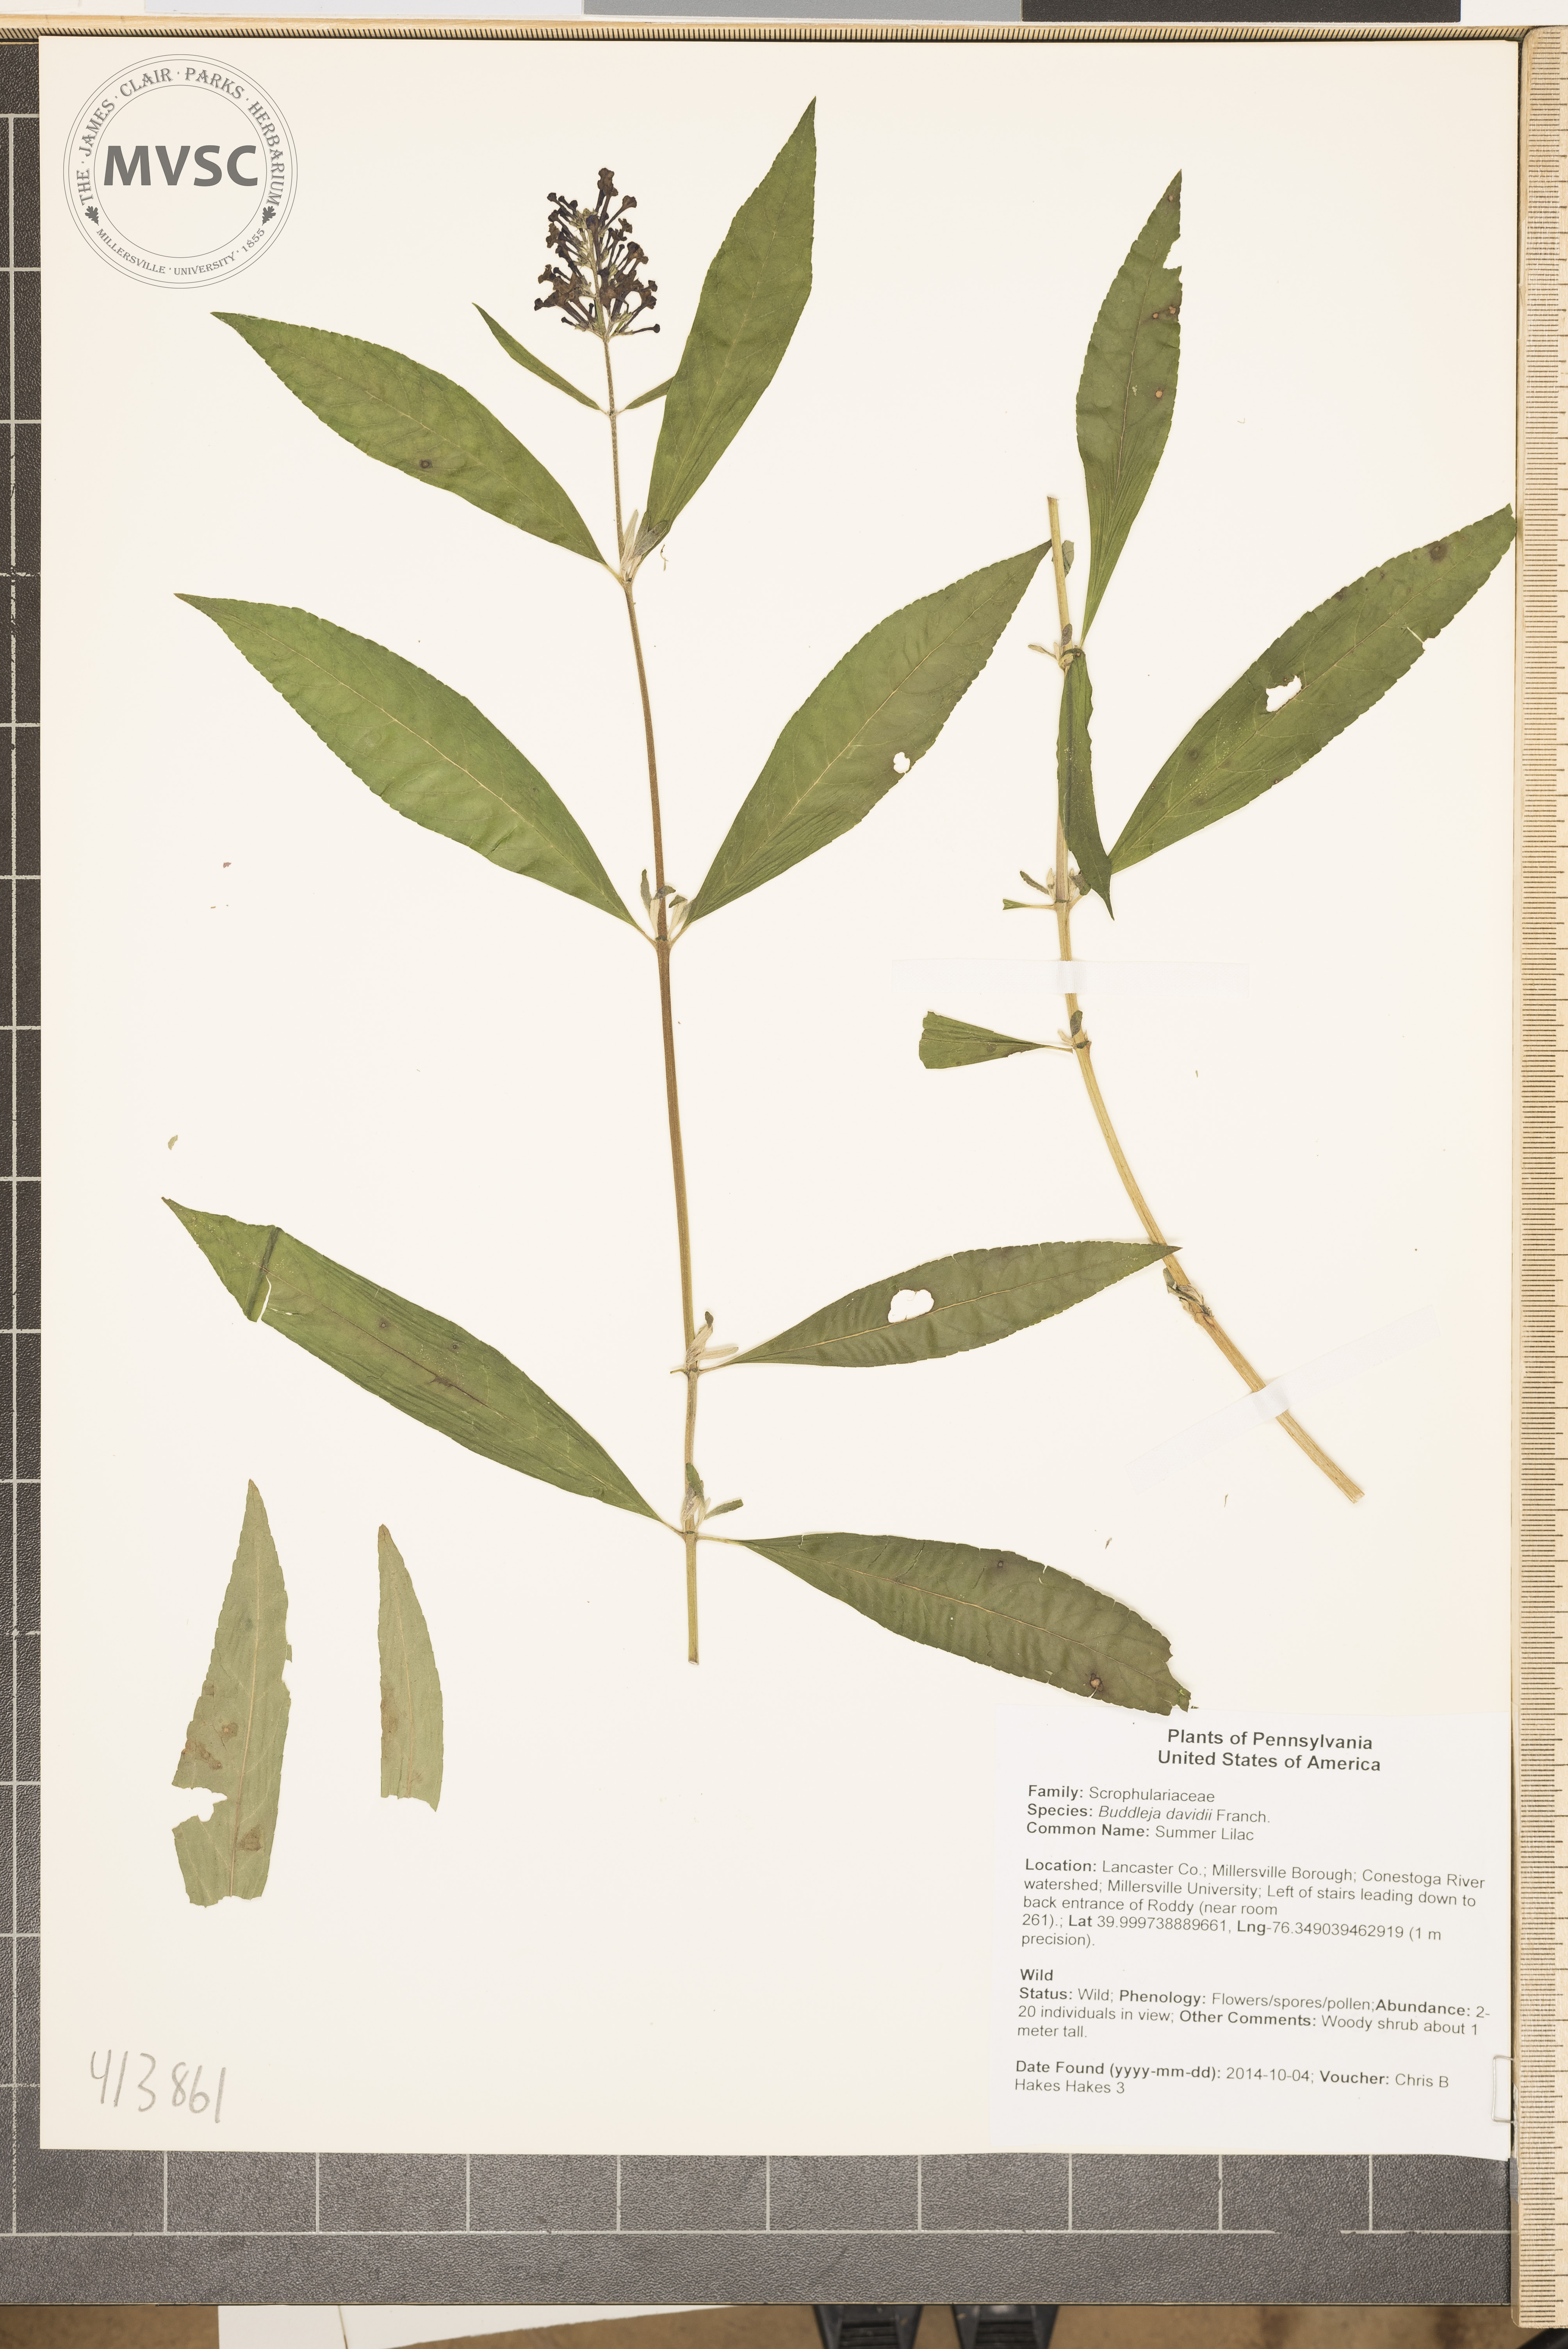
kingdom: Plantae
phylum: Tracheophyta
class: Magnoliopsida
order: Lamiales
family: Scrophulariaceae
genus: Buddleja
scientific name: Buddleja davidii
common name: Summer Lilac
